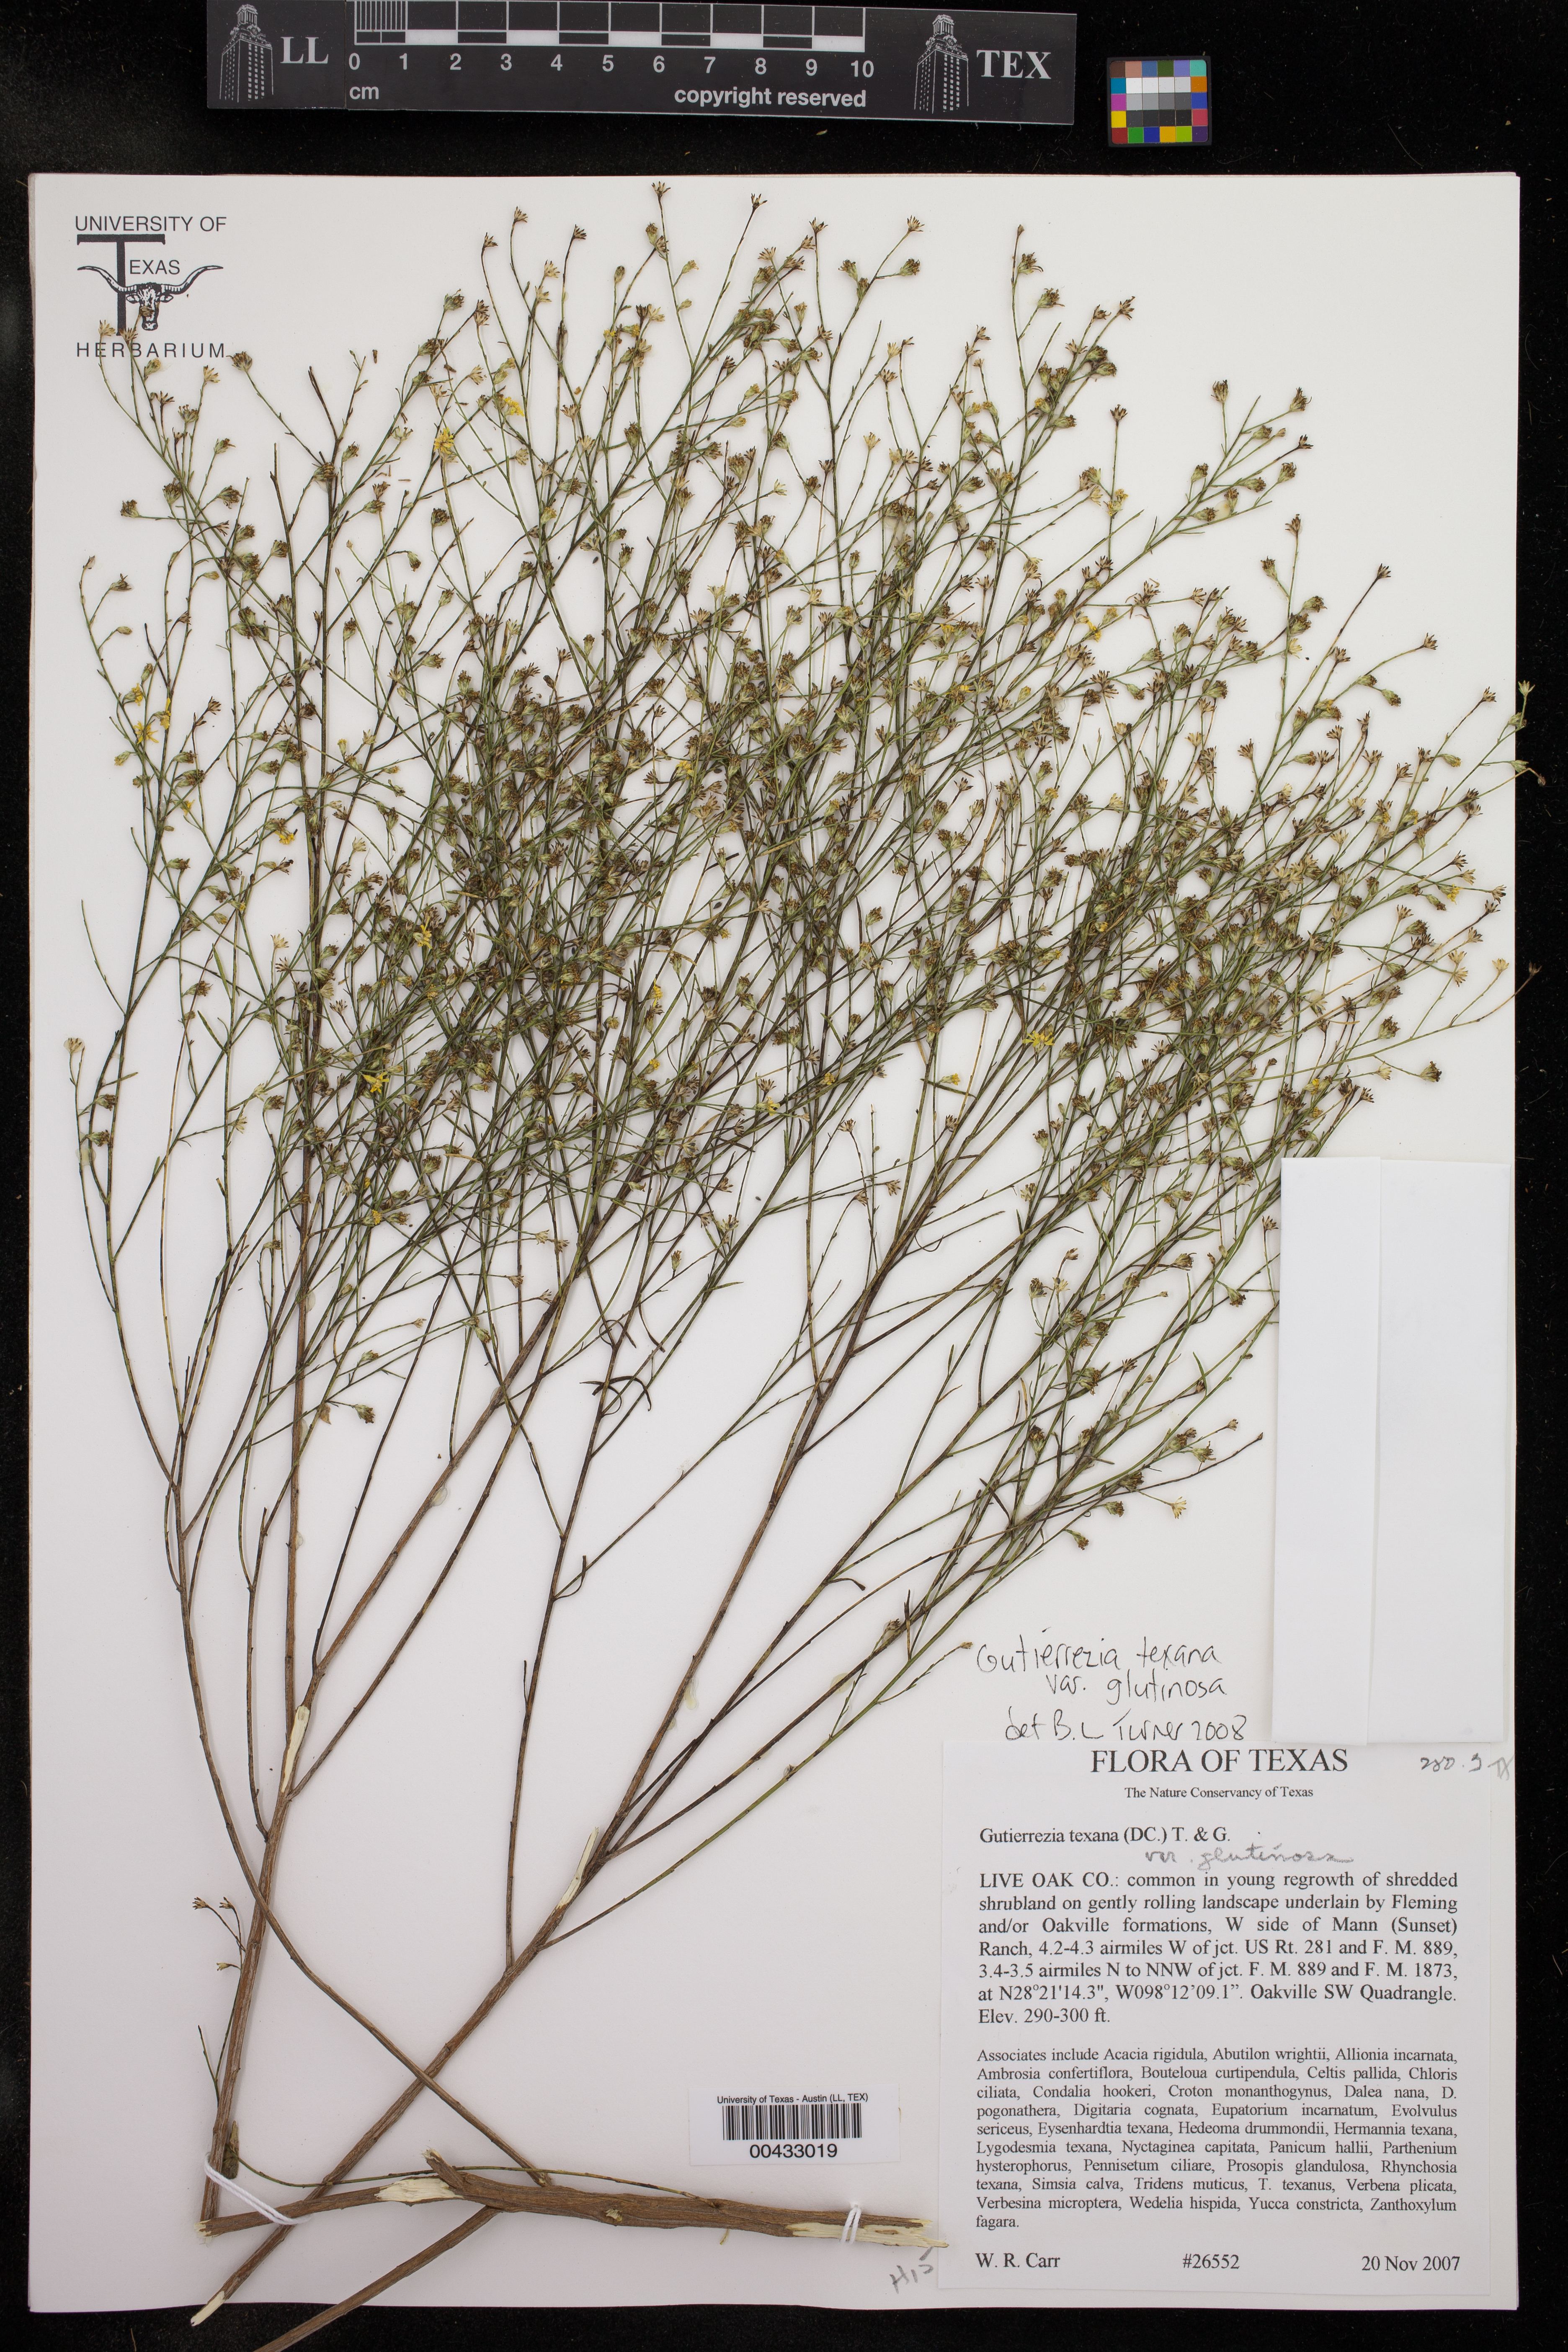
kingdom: Plantae
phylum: Tracheophyta
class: Magnoliopsida
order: Asterales
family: Asteraceae
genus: Gutierrezia
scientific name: Gutierrezia texana
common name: Texas snakeweed
